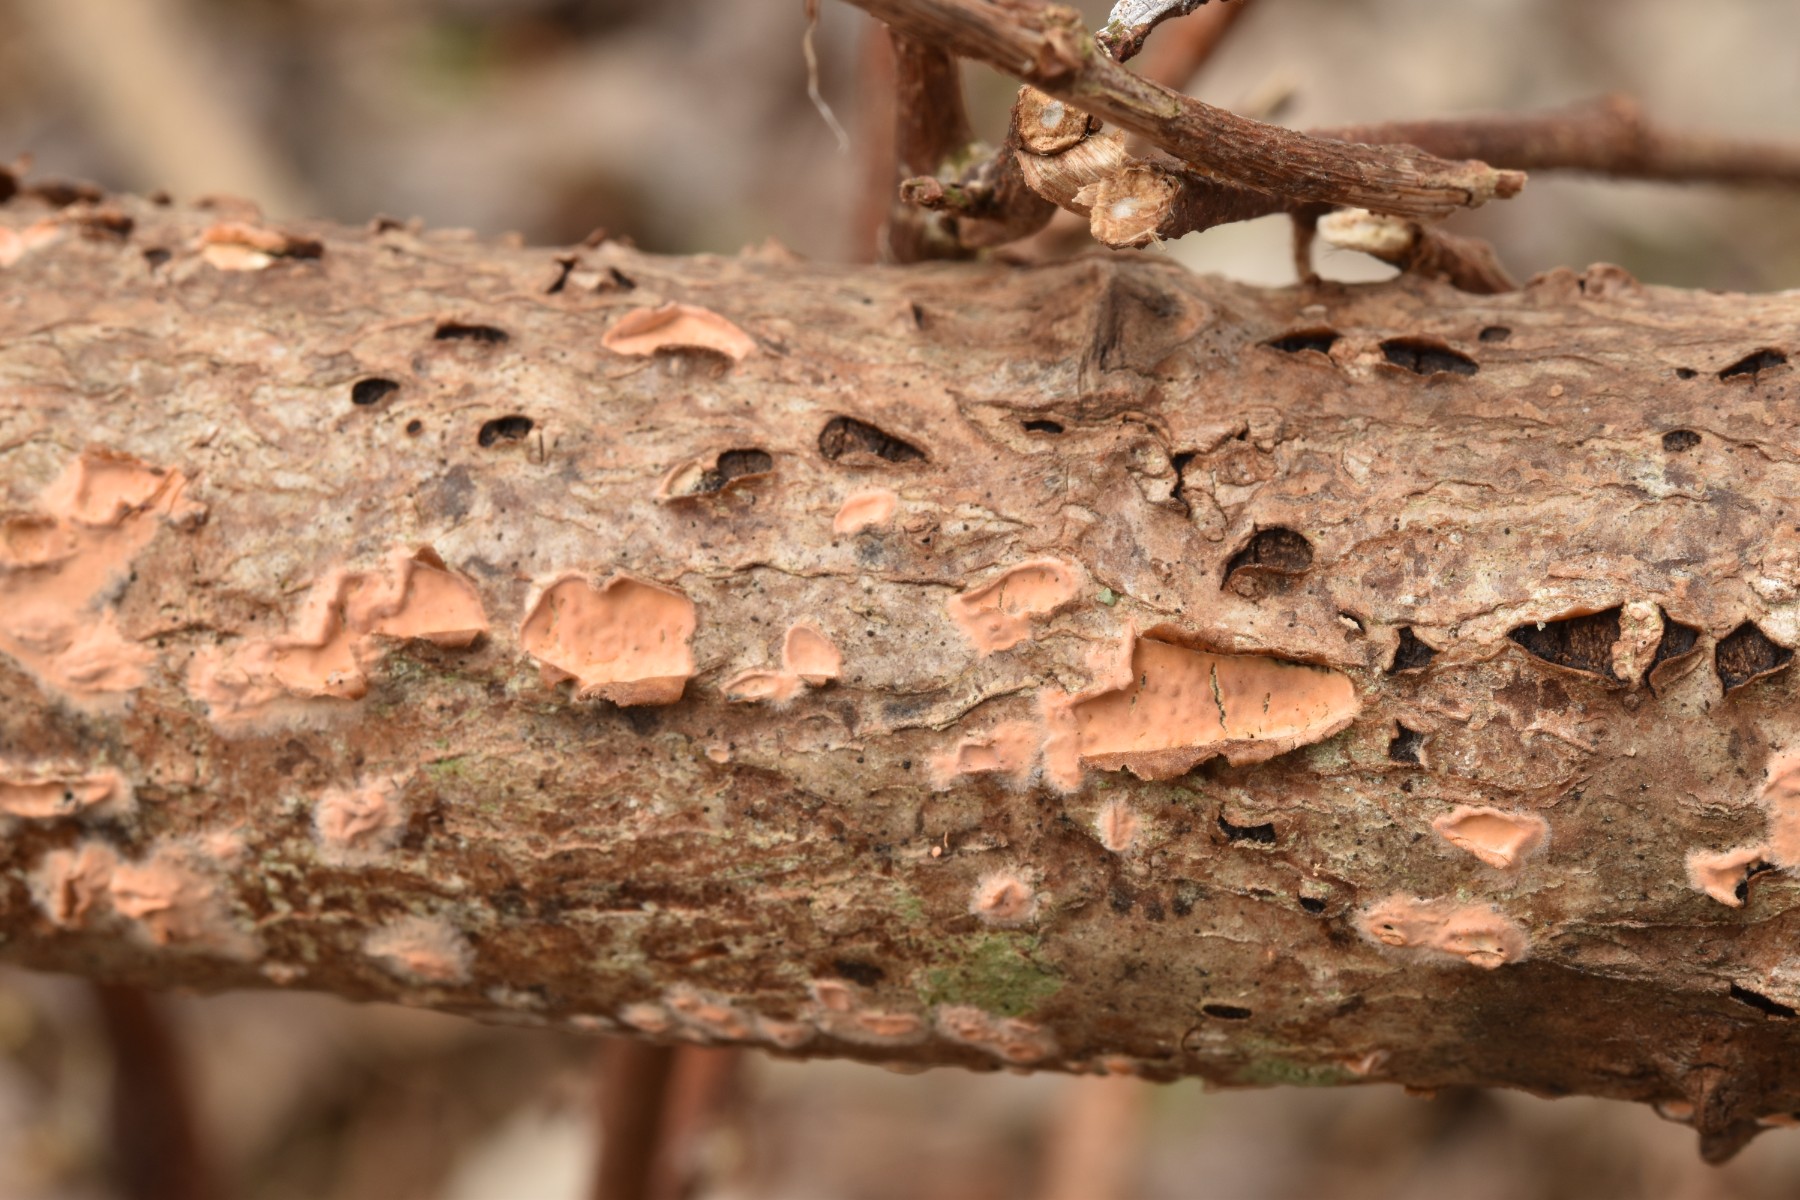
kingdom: Fungi
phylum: Basidiomycota
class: Agaricomycetes
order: Russulales
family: Peniophoraceae
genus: Peniophora
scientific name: Peniophora incarnata
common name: laksefarvet voksskind
